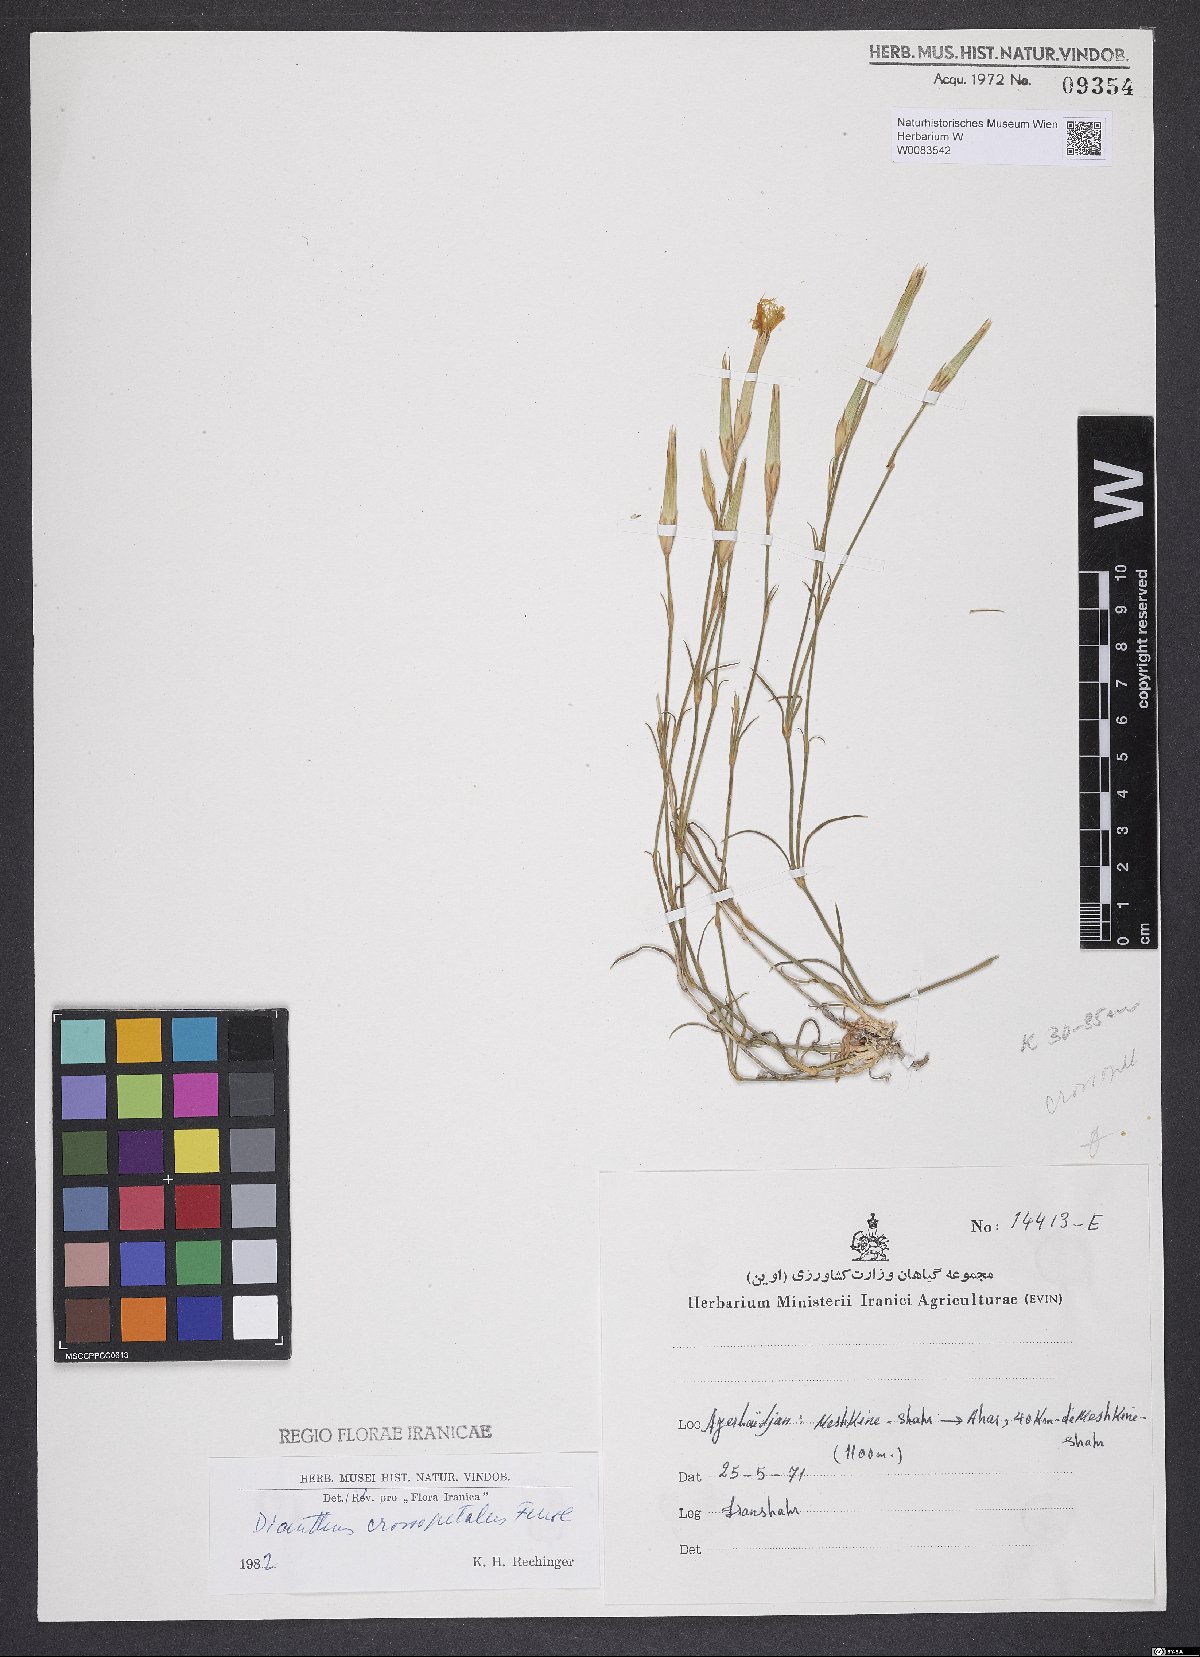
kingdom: Plantae
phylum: Tracheophyta
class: Magnoliopsida
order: Caryophyllales
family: Caryophyllaceae
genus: Dianthus
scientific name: Dianthus crossopetalus
